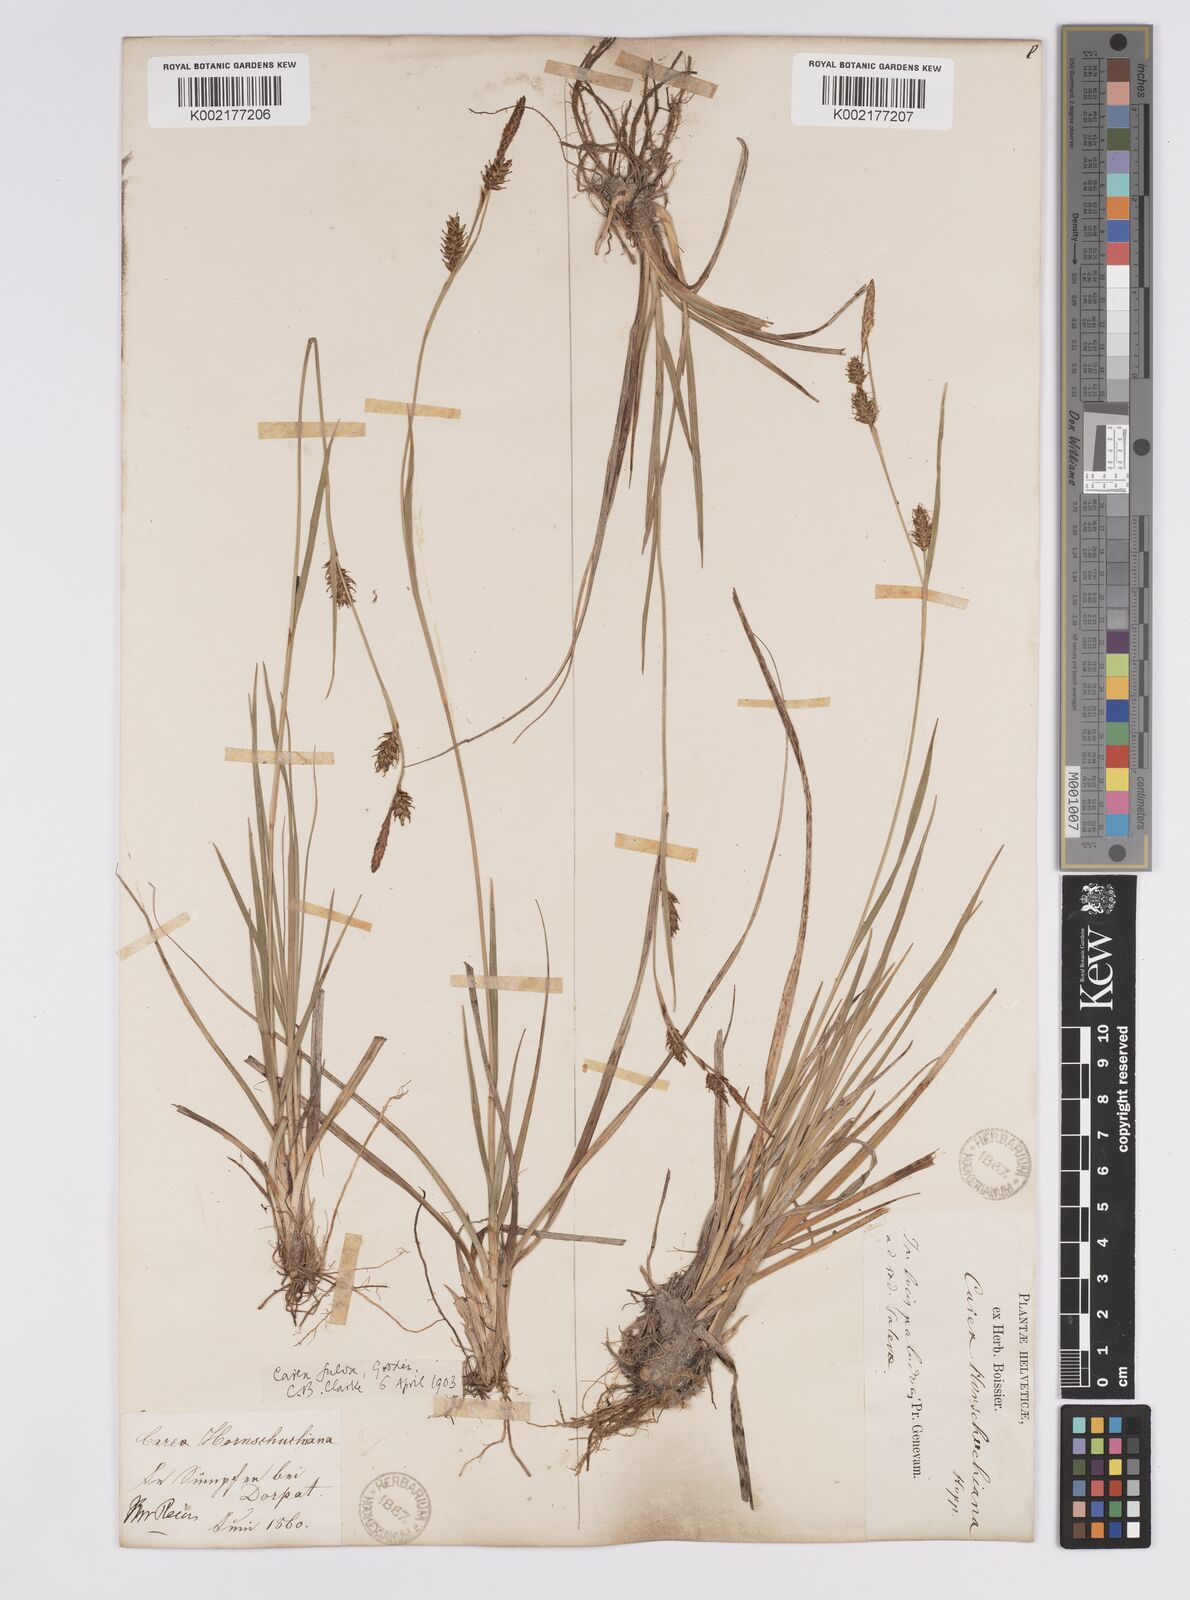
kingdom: Plantae
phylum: Tracheophyta
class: Liliopsida
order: Poales
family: Cyperaceae
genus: Carex
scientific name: Carex hostiana
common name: Tawny sedge
